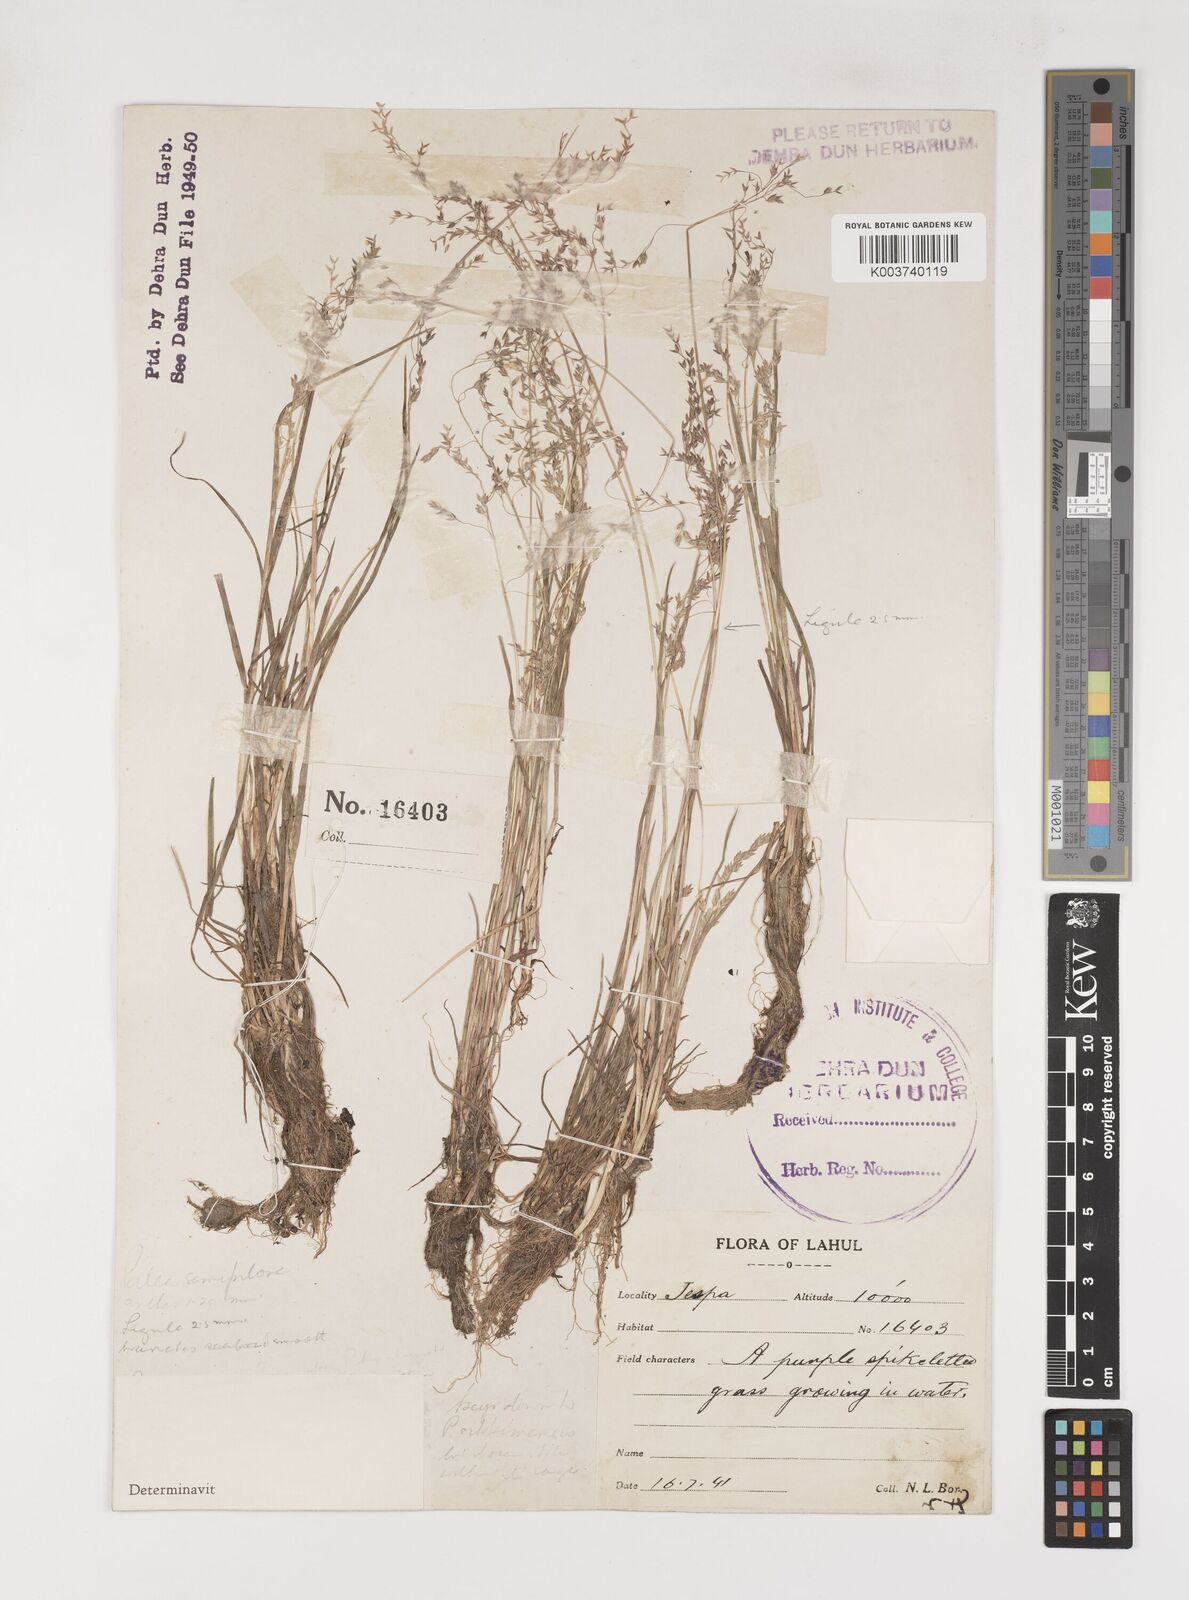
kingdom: Plantae
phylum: Tracheophyta
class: Liliopsida
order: Poales
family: Poaceae
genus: Poa
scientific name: Poa sikkimensis
